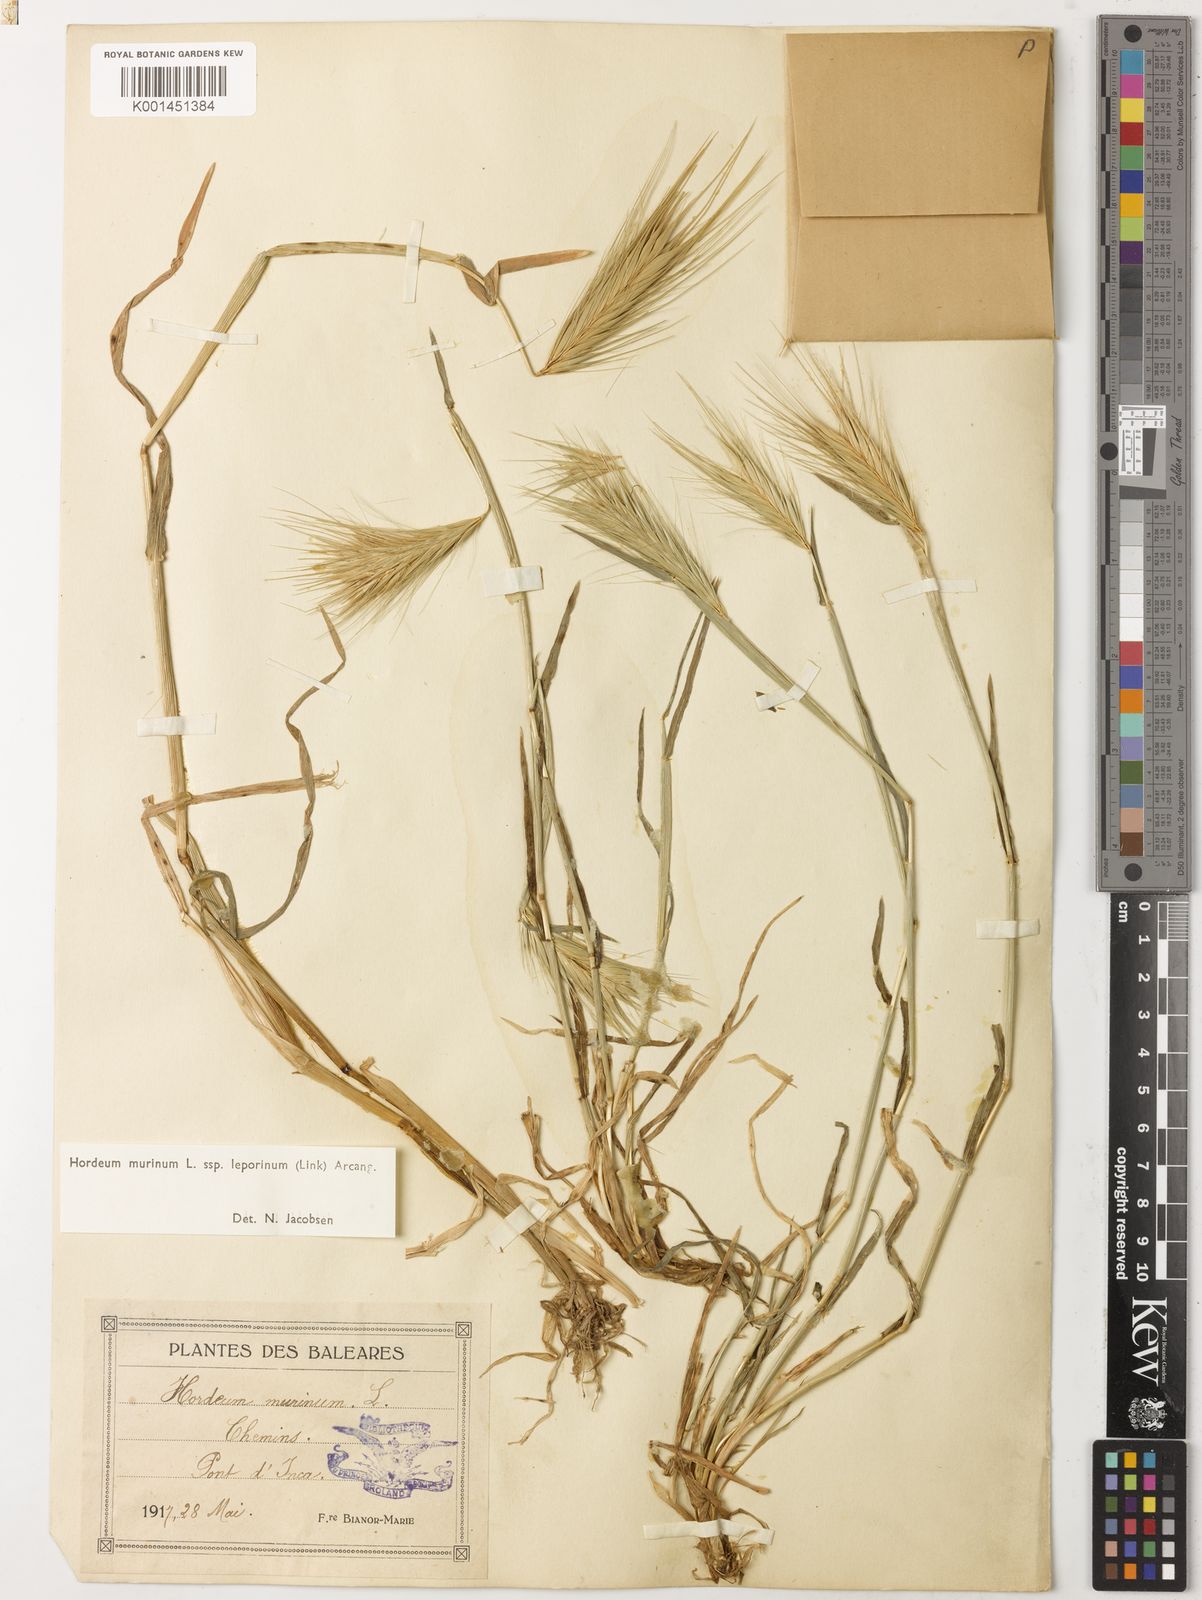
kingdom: Plantae
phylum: Tracheophyta
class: Liliopsida
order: Poales
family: Poaceae
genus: Hordeum
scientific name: Hordeum murinum
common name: Wall barley
